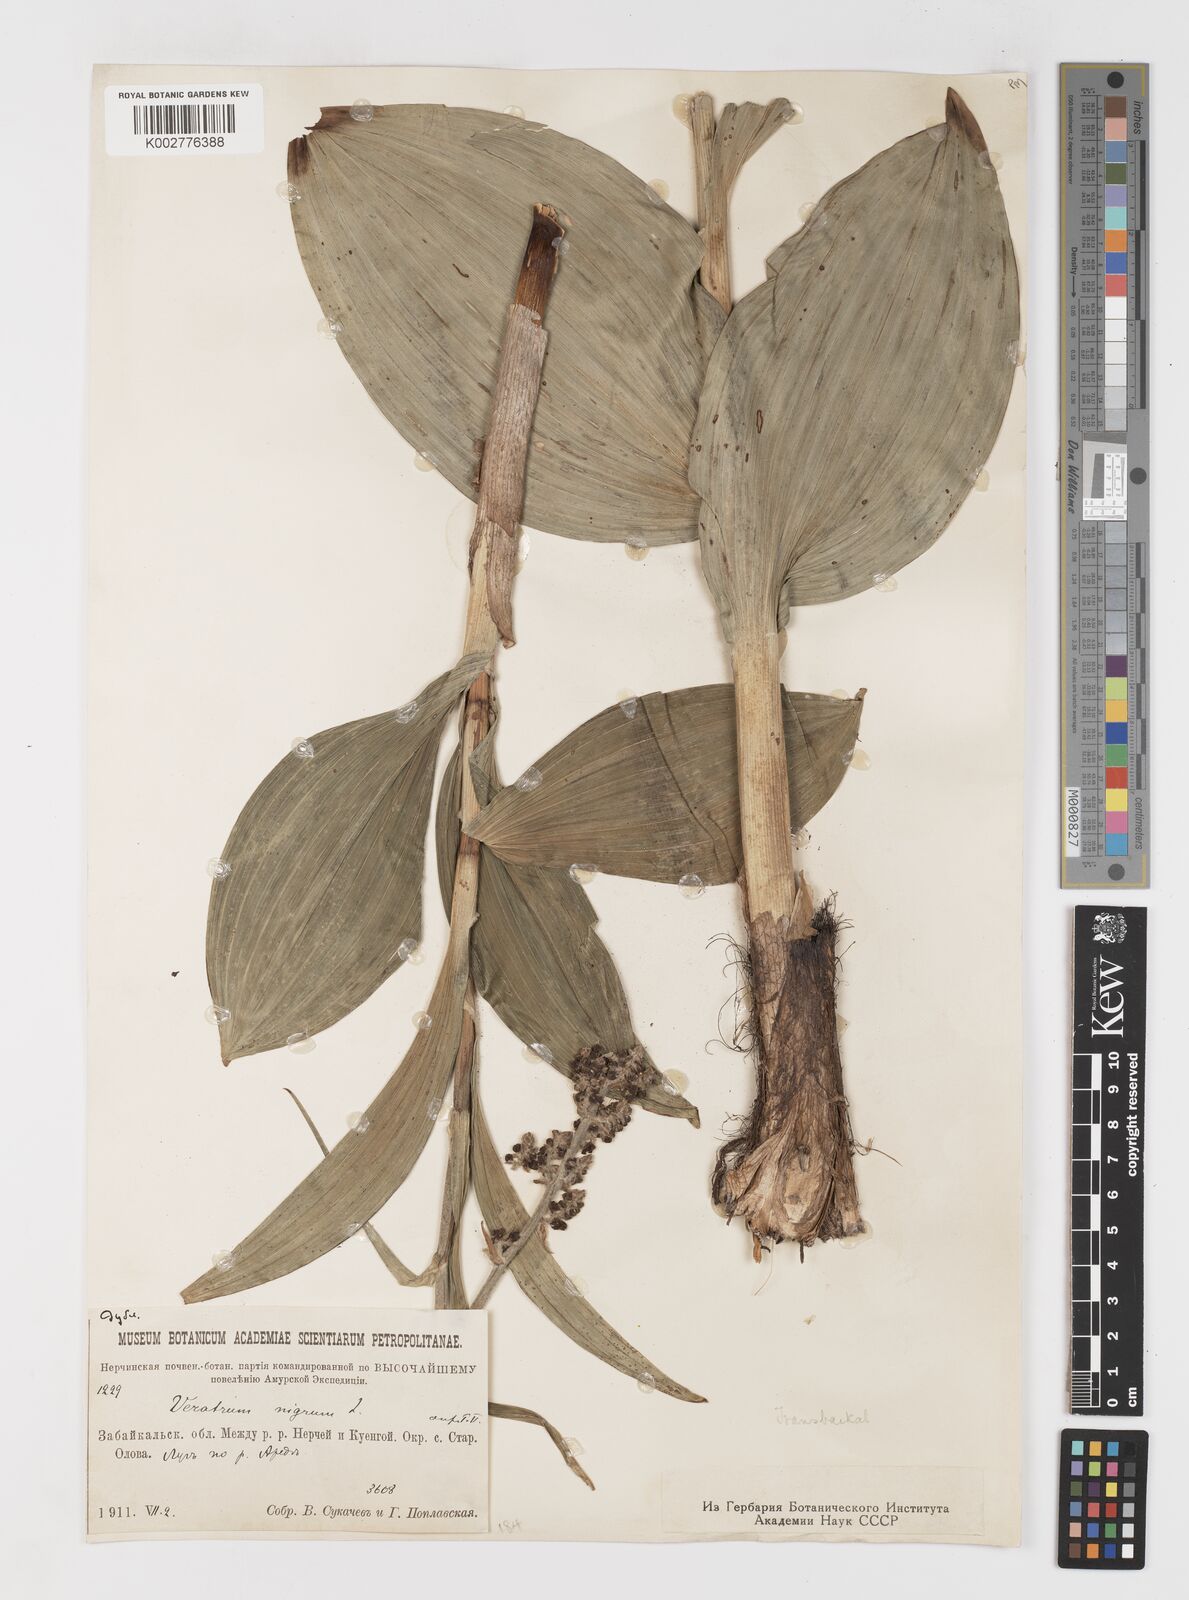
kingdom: Plantae
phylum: Tracheophyta
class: Liliopsida
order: Liliales
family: Melanthiaceae
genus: Veratrum
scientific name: Veratrum nigrum
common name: Black veratrum
